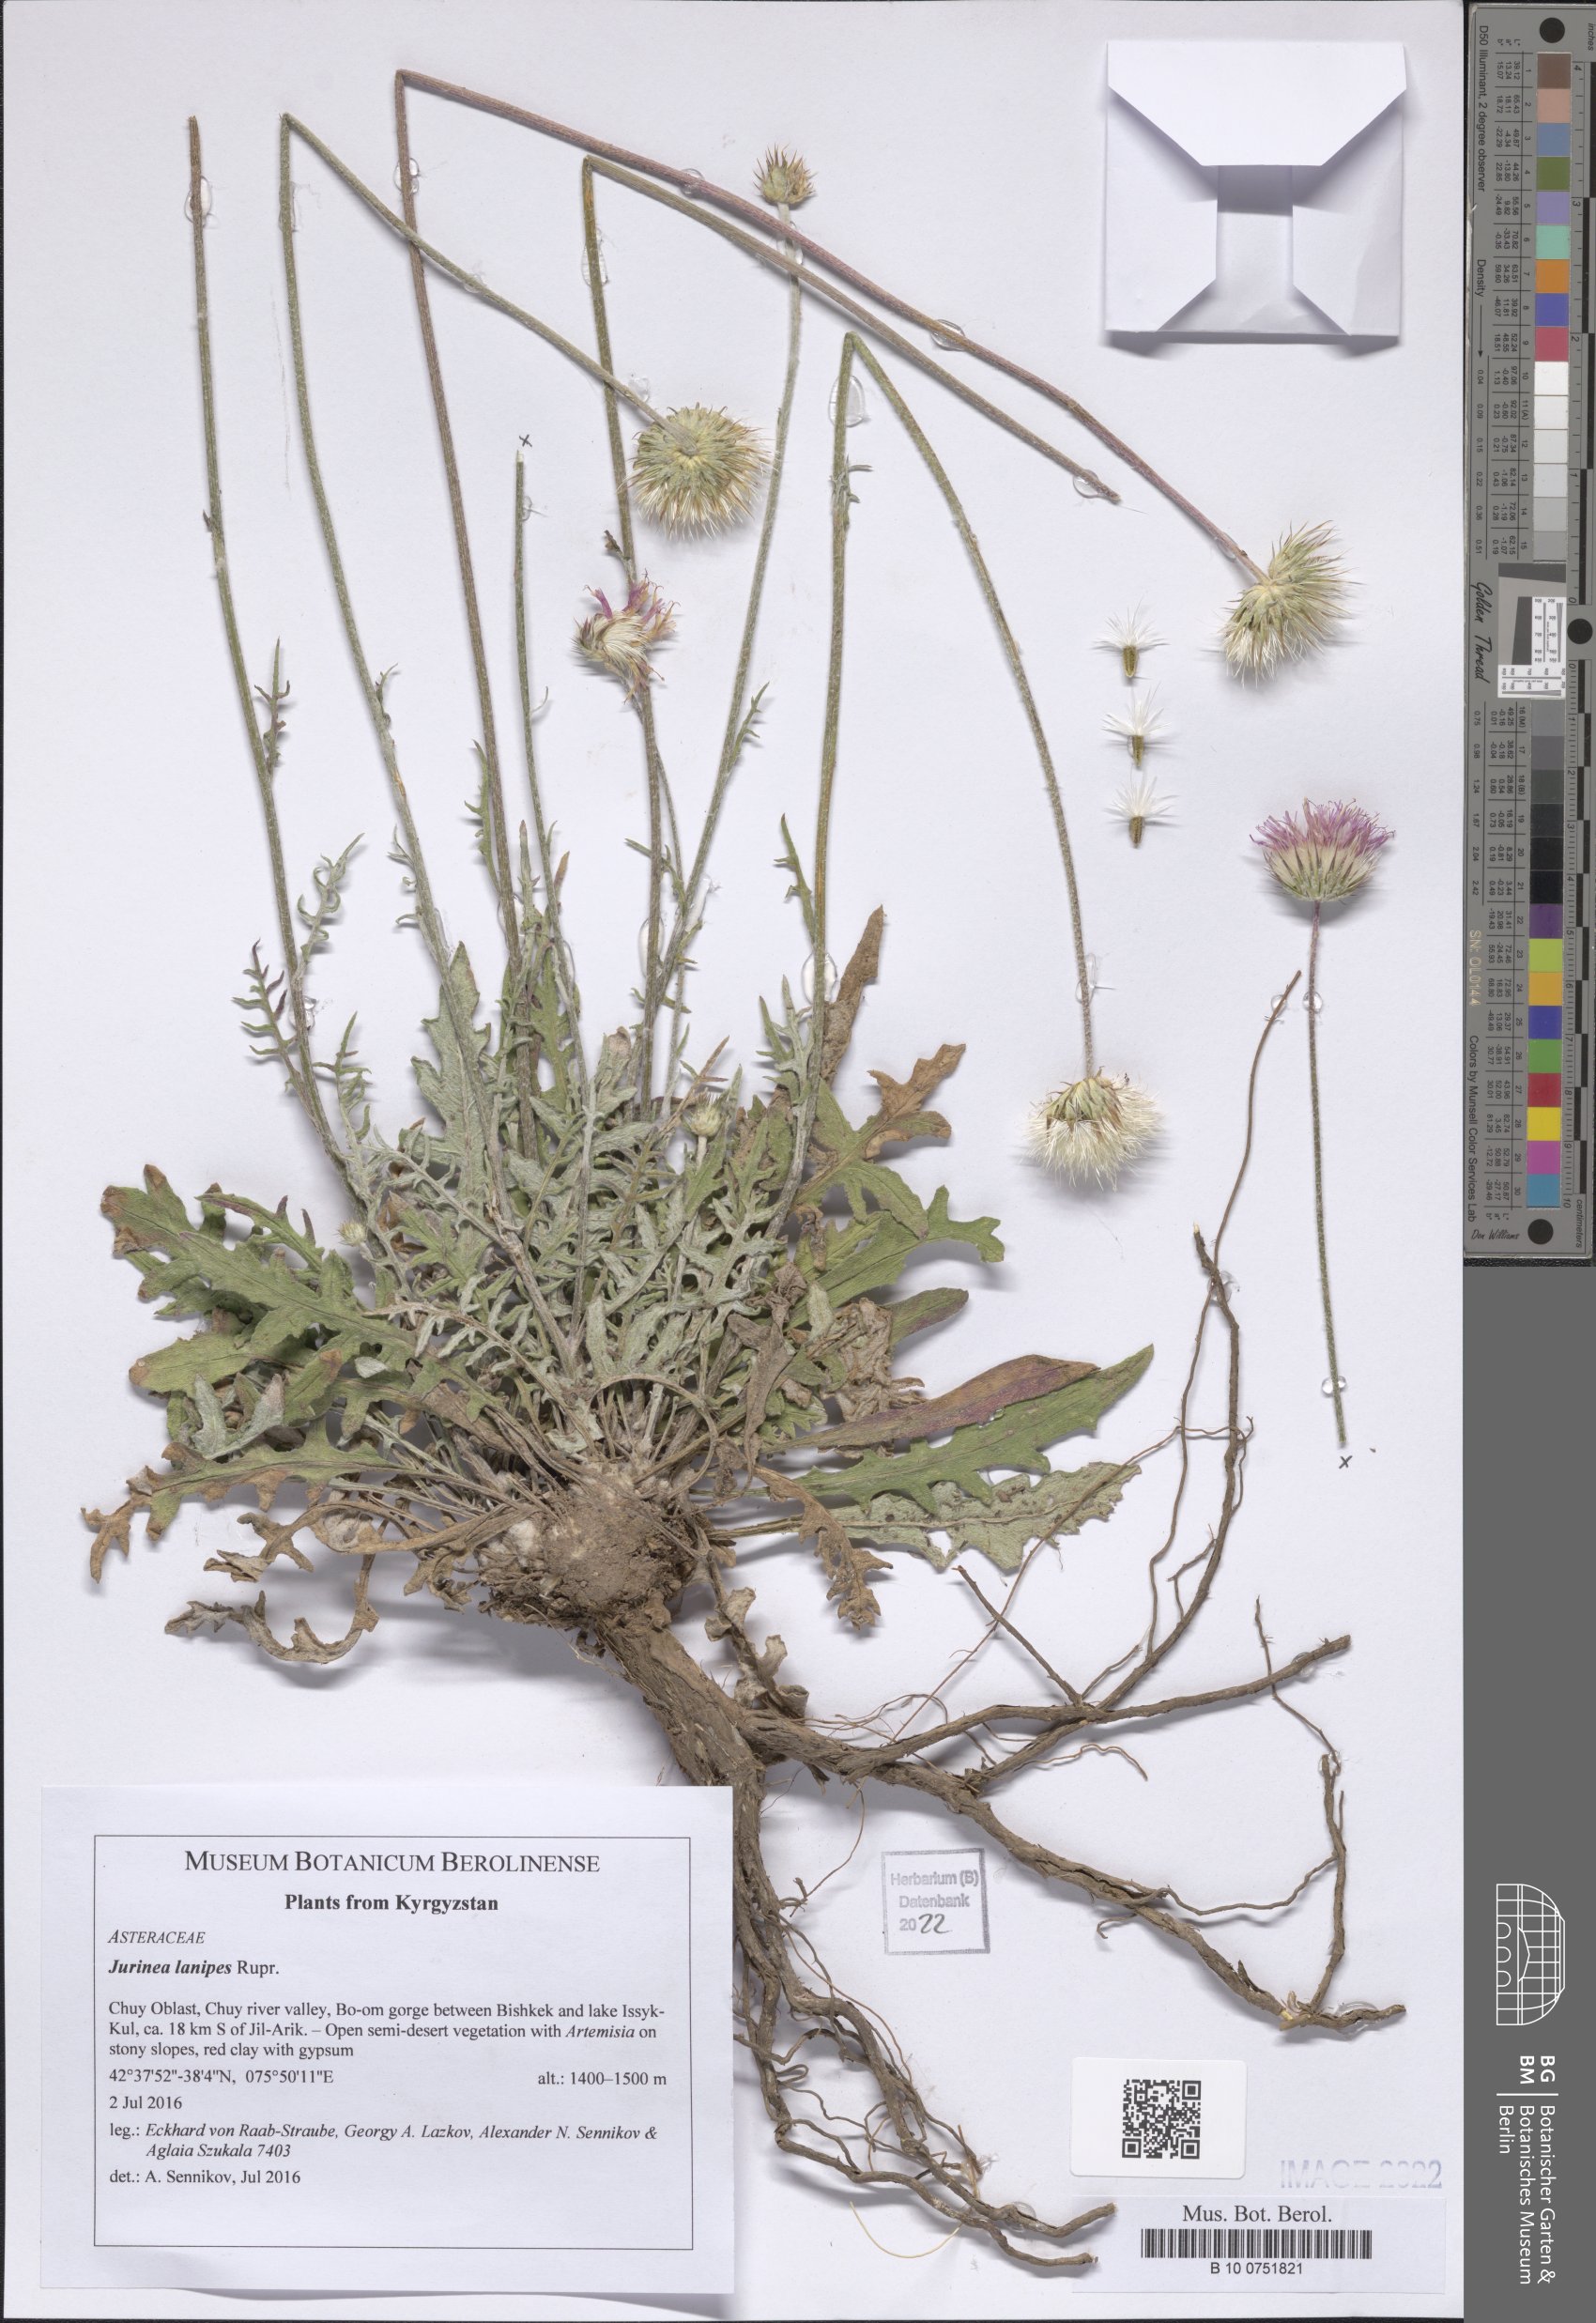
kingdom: Plantae
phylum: Tracheophyta
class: Magnoliopsida
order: Asterales
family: Asteraceae
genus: Jurinea
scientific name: Jurinea lanipes
